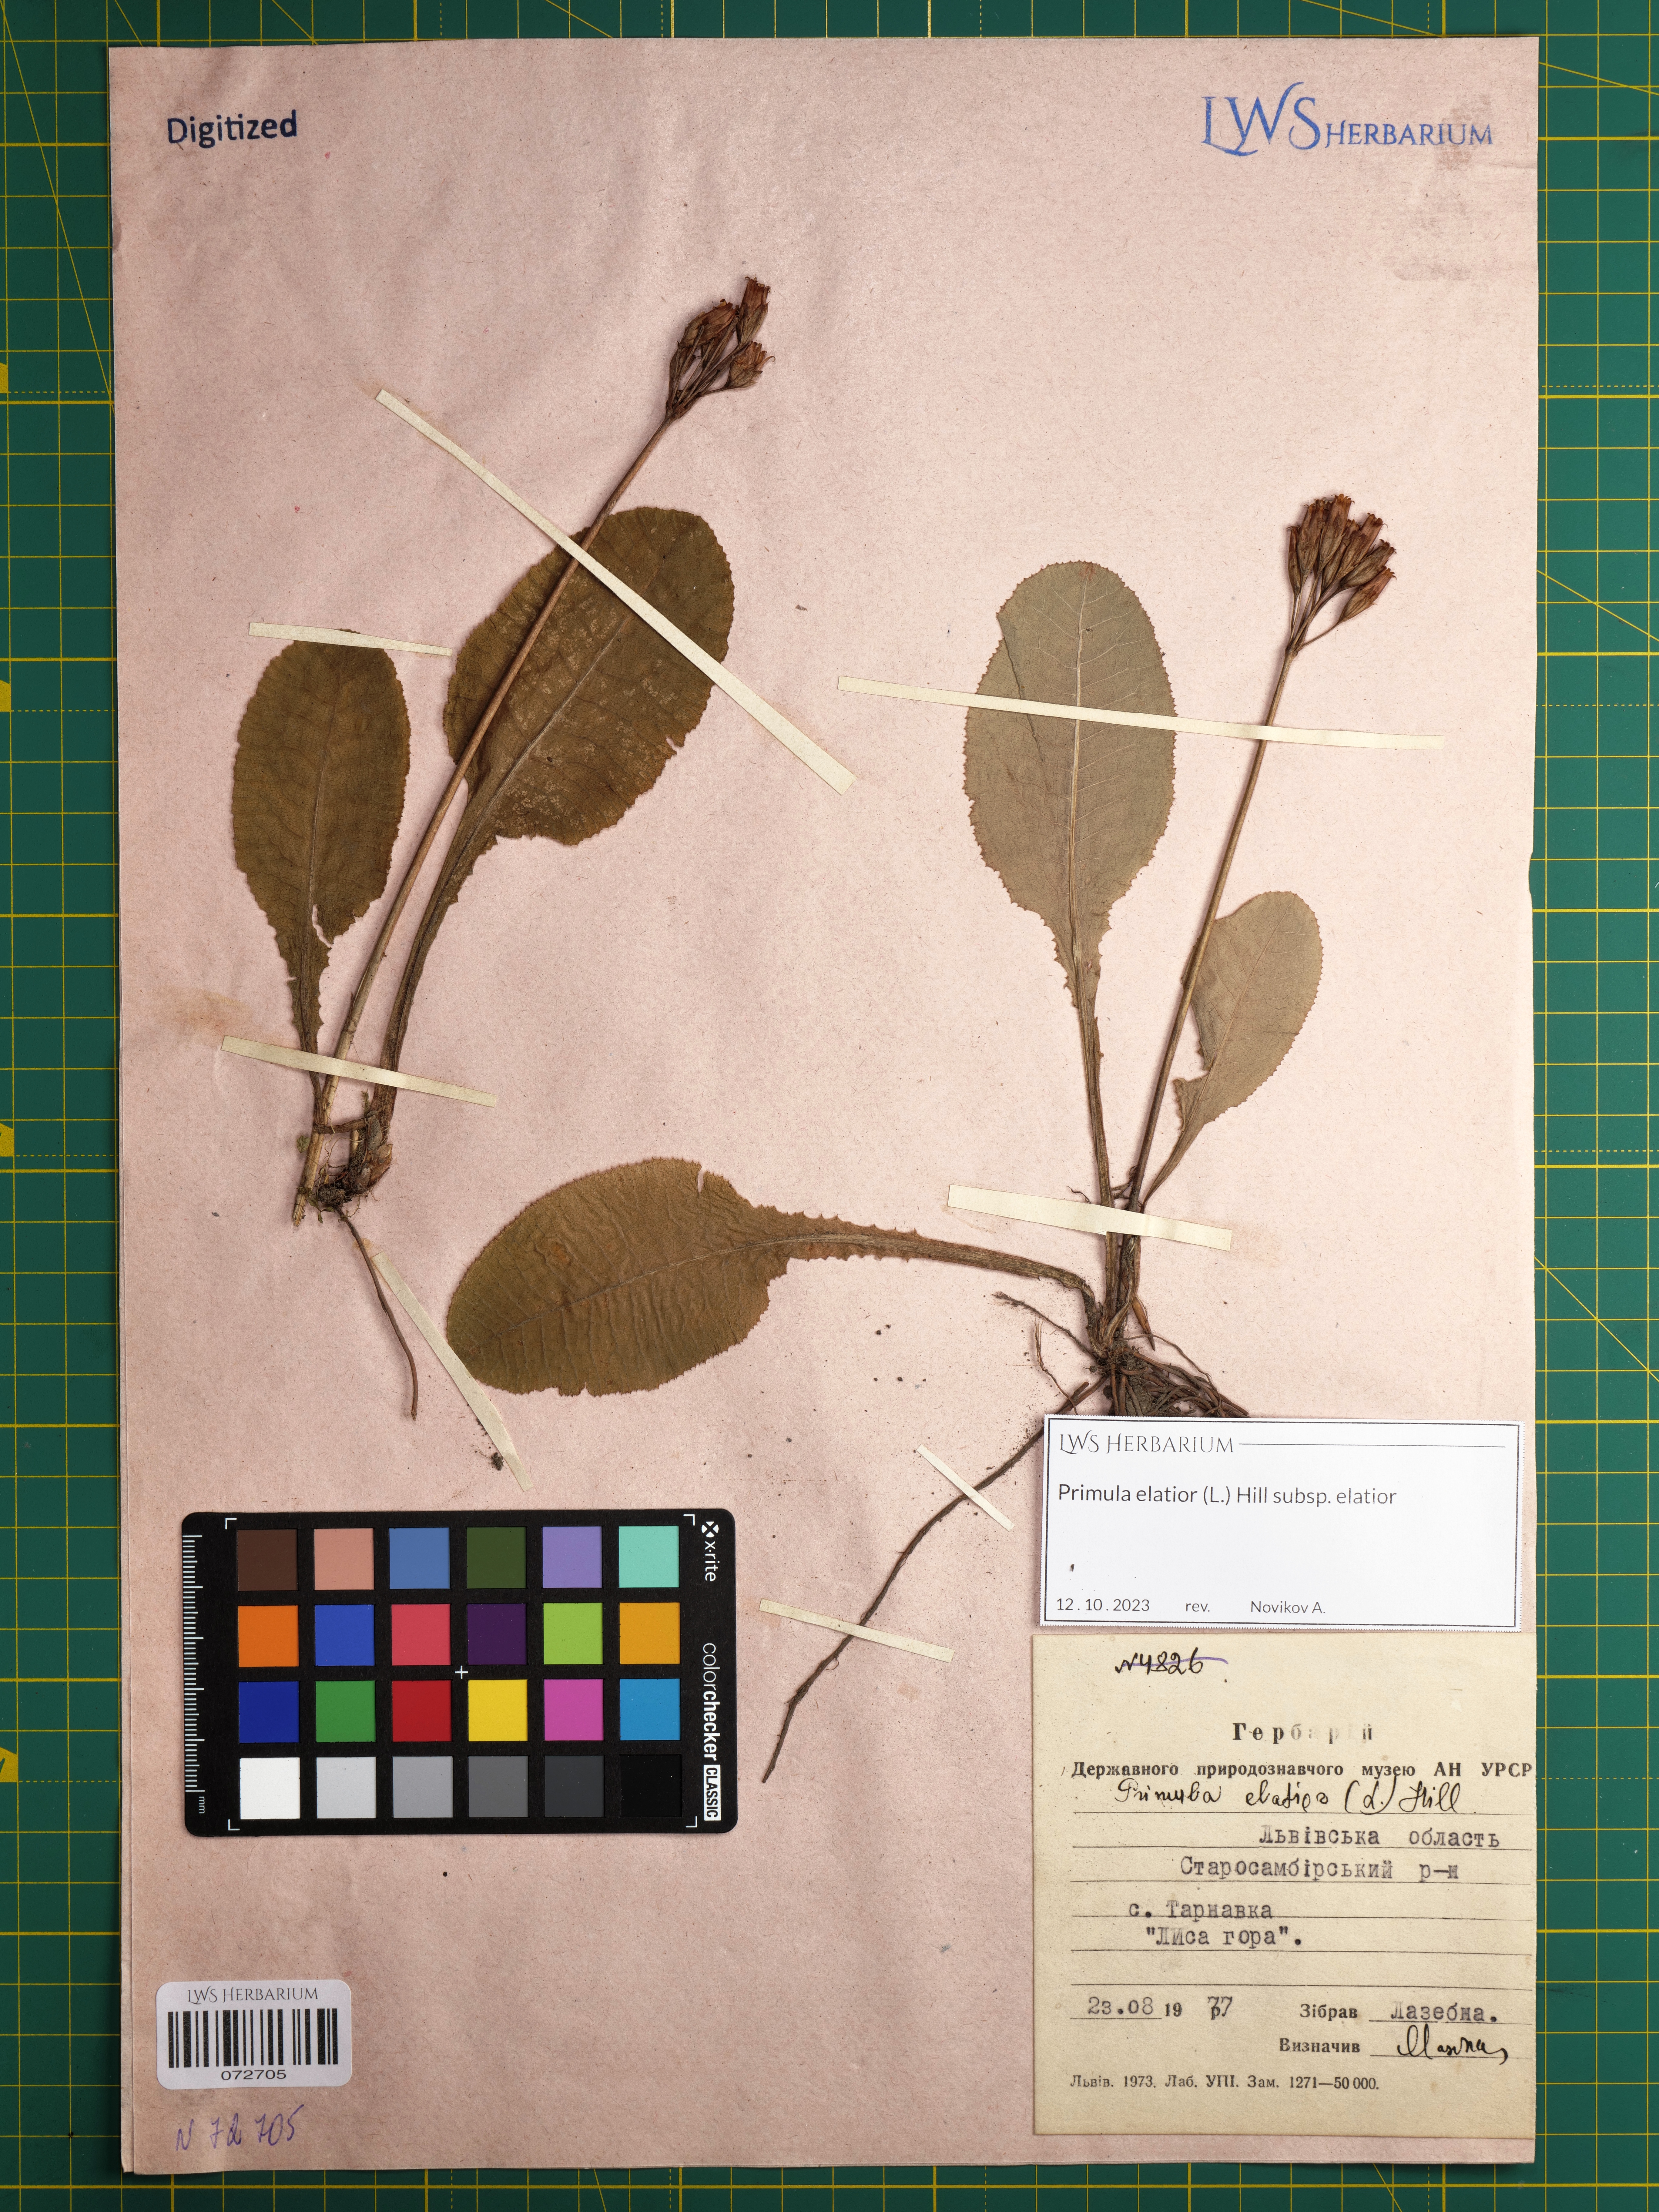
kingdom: Plantae
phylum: Tracheophyta
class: Magnoliopsida
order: Ericales
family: Primulaceae
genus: Primula
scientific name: Primula elatior
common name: Oxlip
